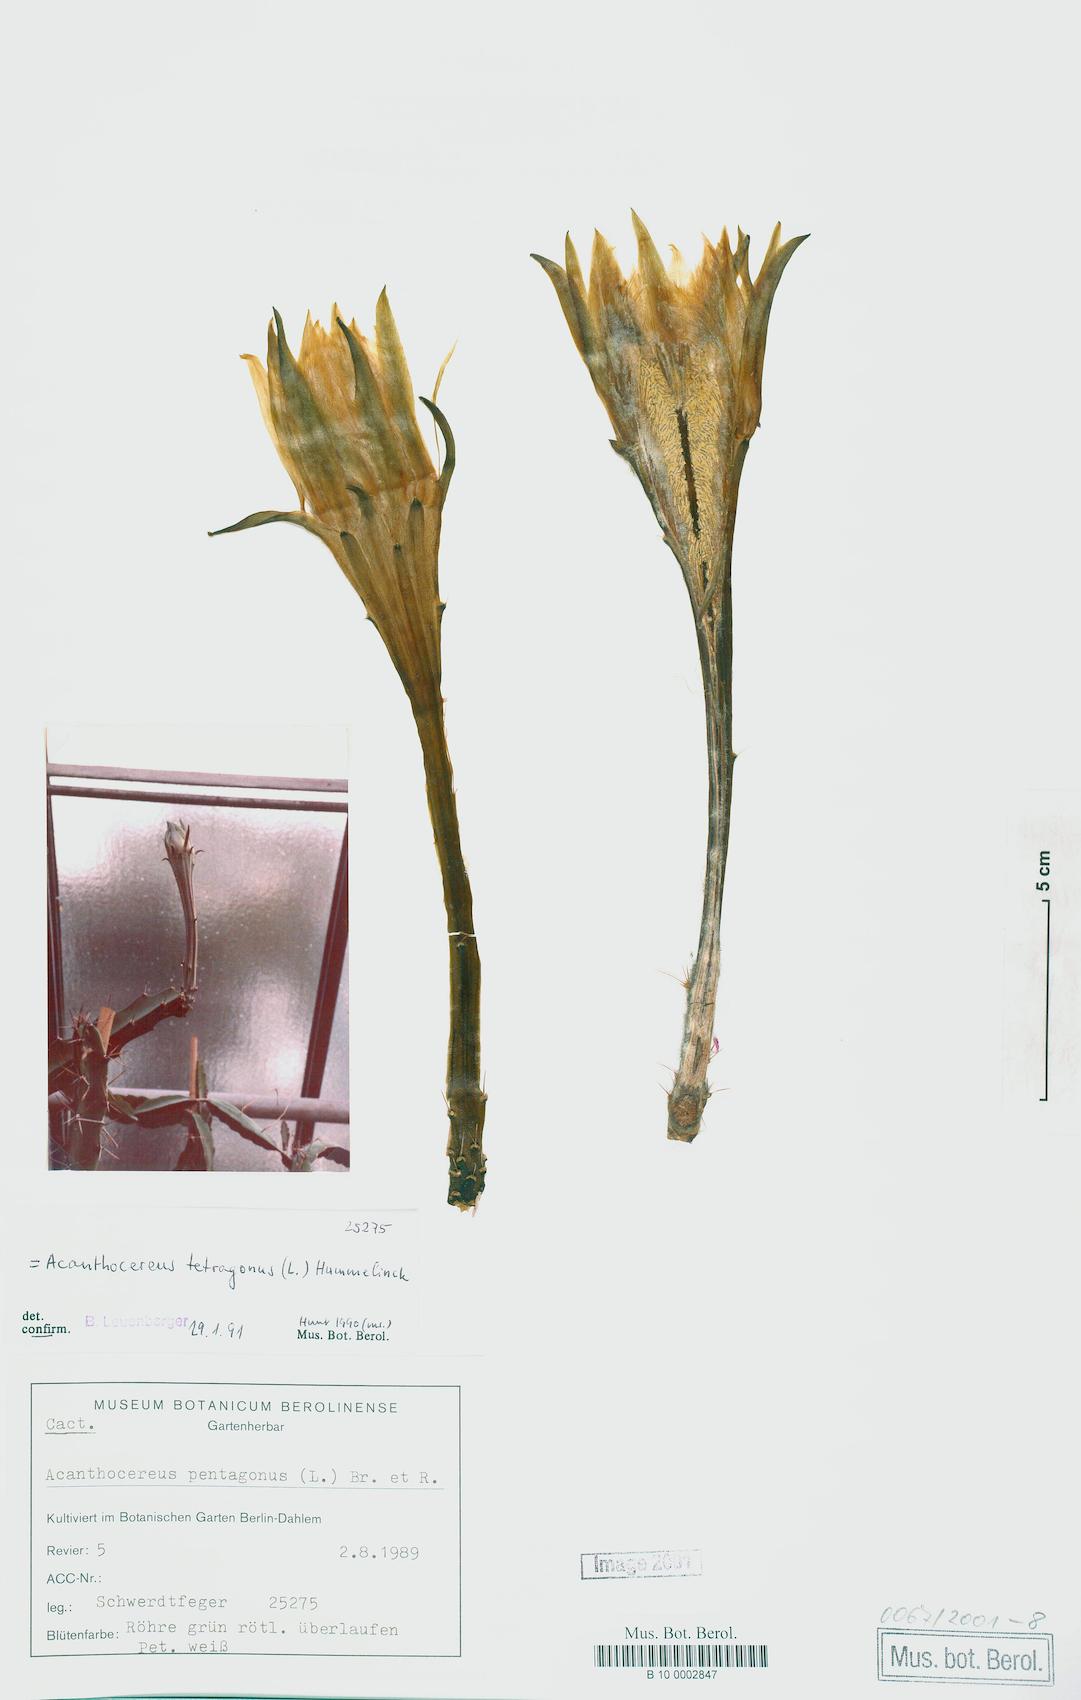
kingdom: Plantae
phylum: Tracheophyta
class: Magnoliopsida
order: Caryophyllales
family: Cactaceae
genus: Acanthocereus
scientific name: Acanthocereus tetragonus
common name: Triangle cactus
